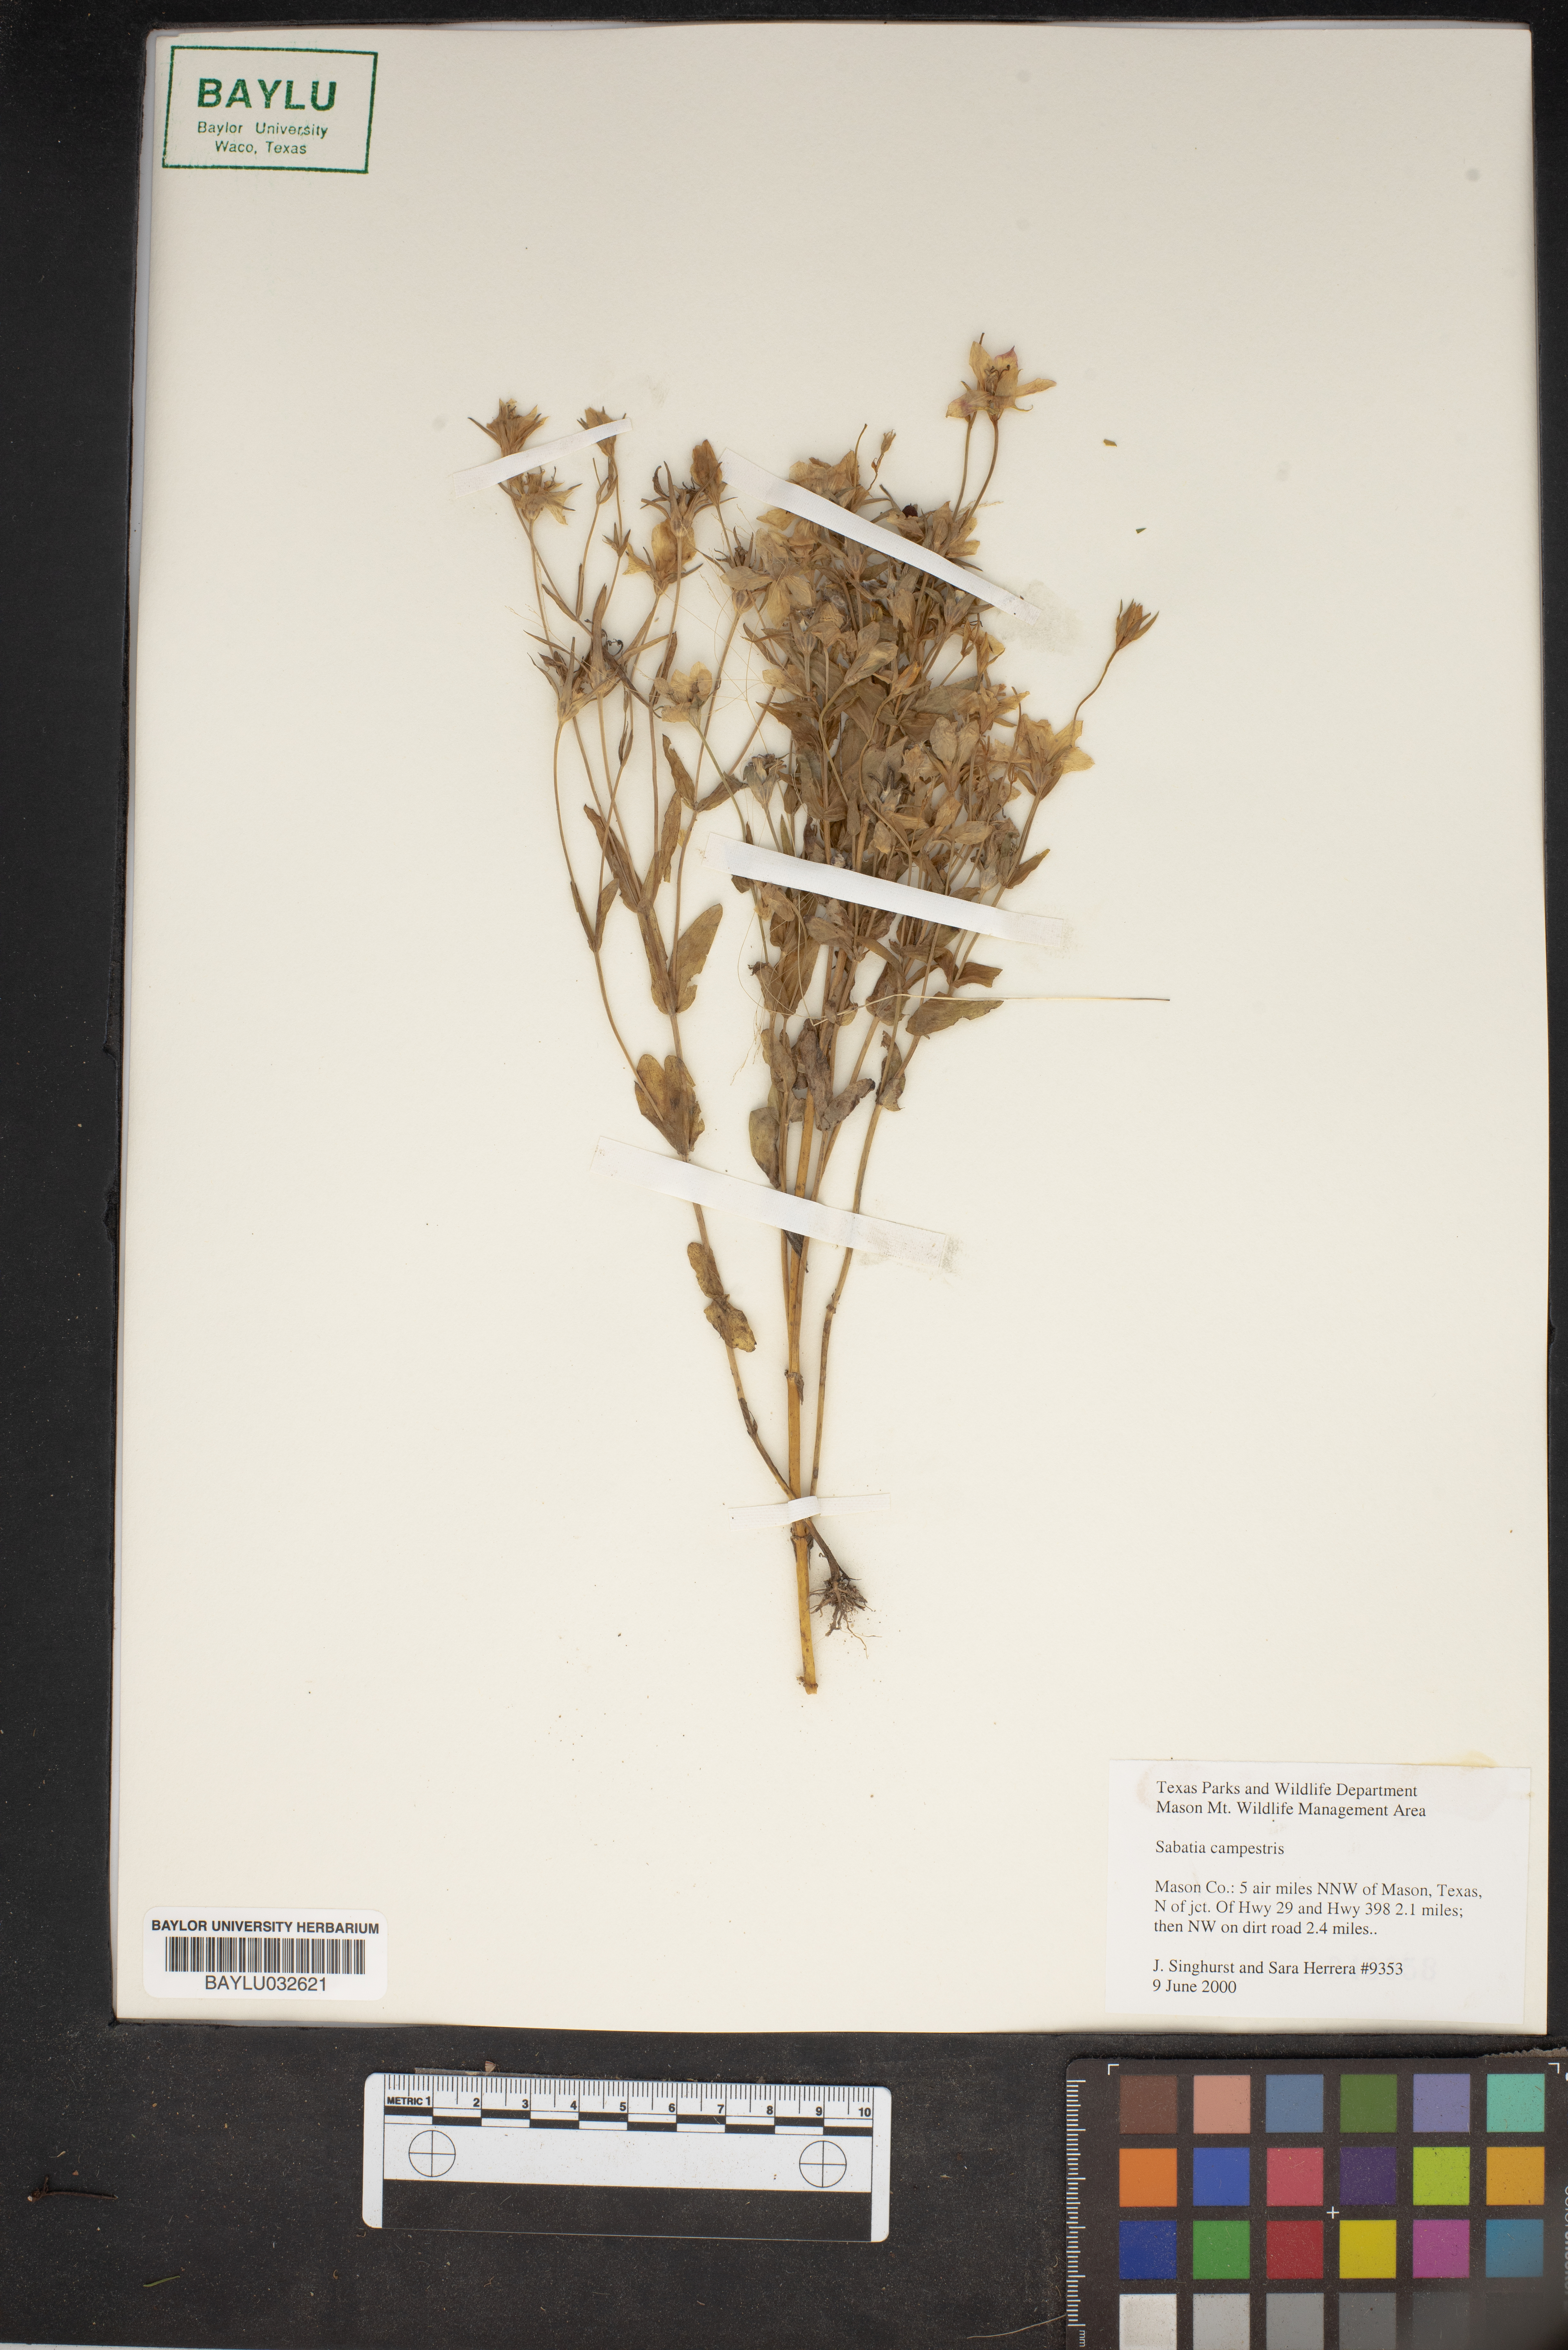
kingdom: Plantae
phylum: Tracheophyta
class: Magnoliopsida
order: Gentianales
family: Gentianaceae
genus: Sabatia
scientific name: Sabatia campestris
